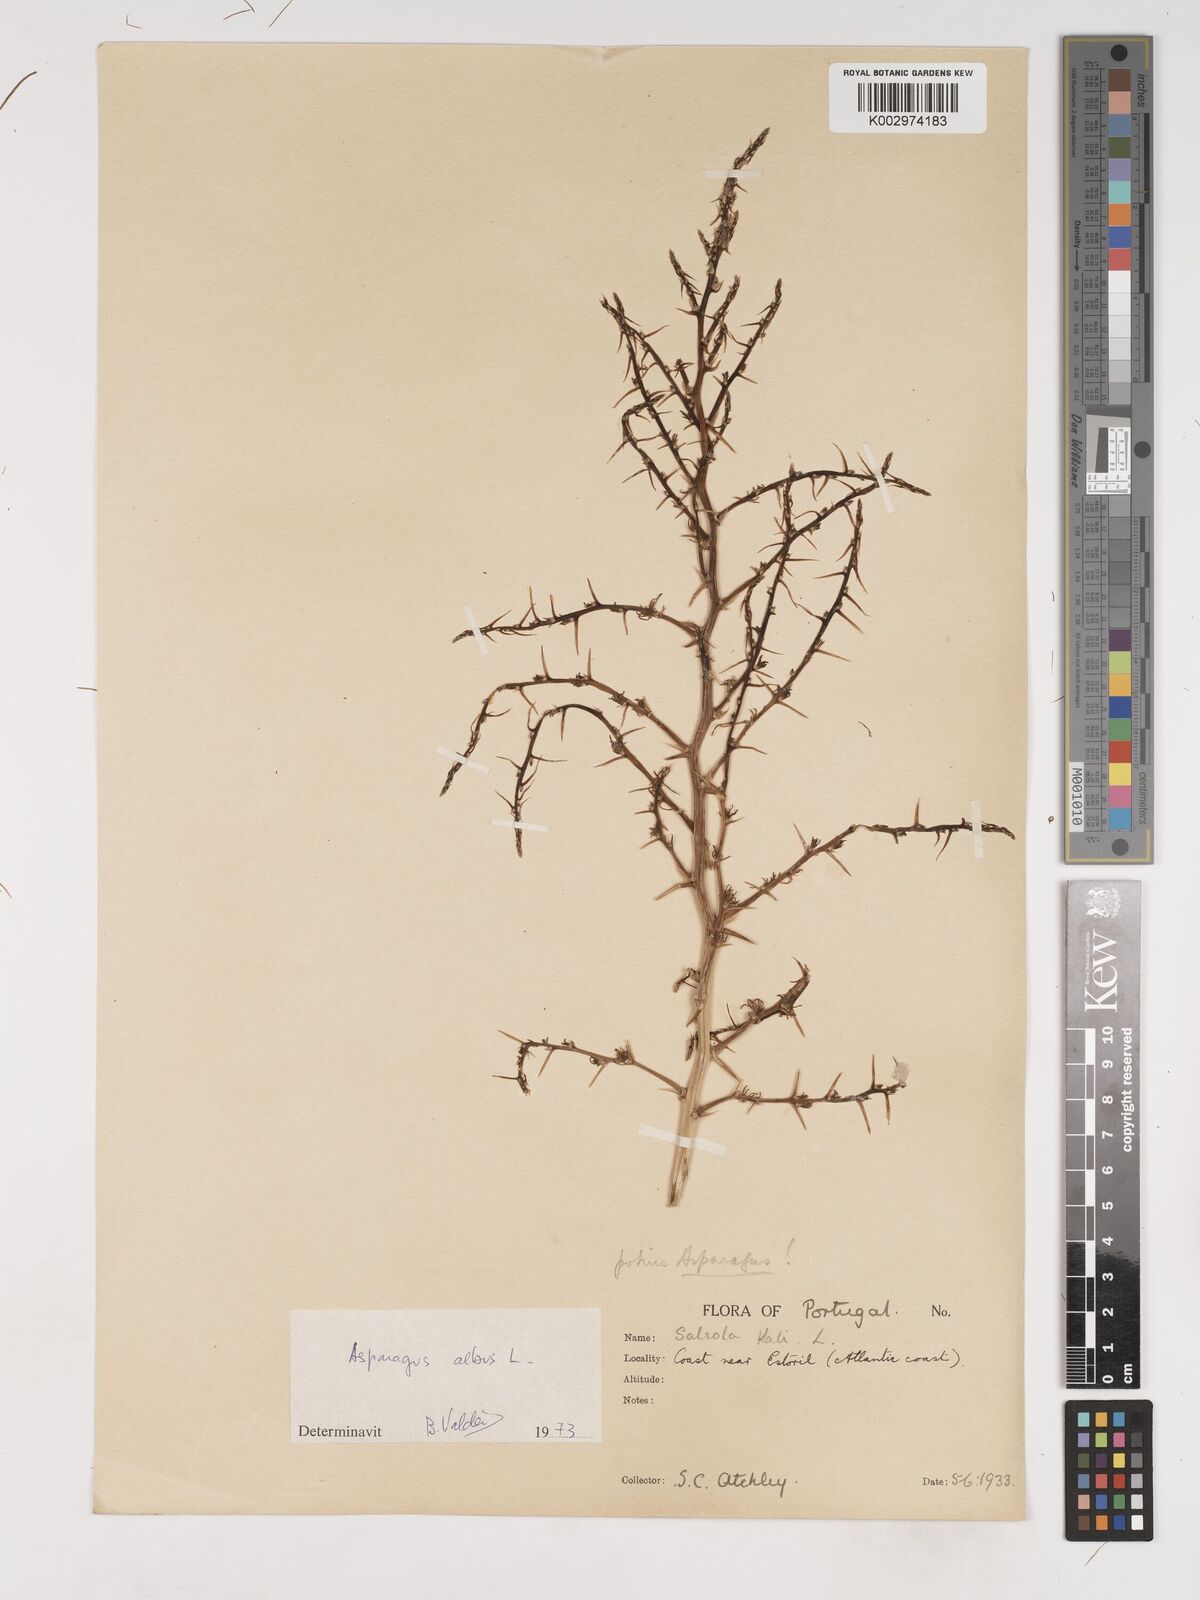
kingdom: Plantae
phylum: Tracheophyta
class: Liliopsida
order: Asparagales
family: Asparagaceae
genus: Asparagus
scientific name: Asparagus
